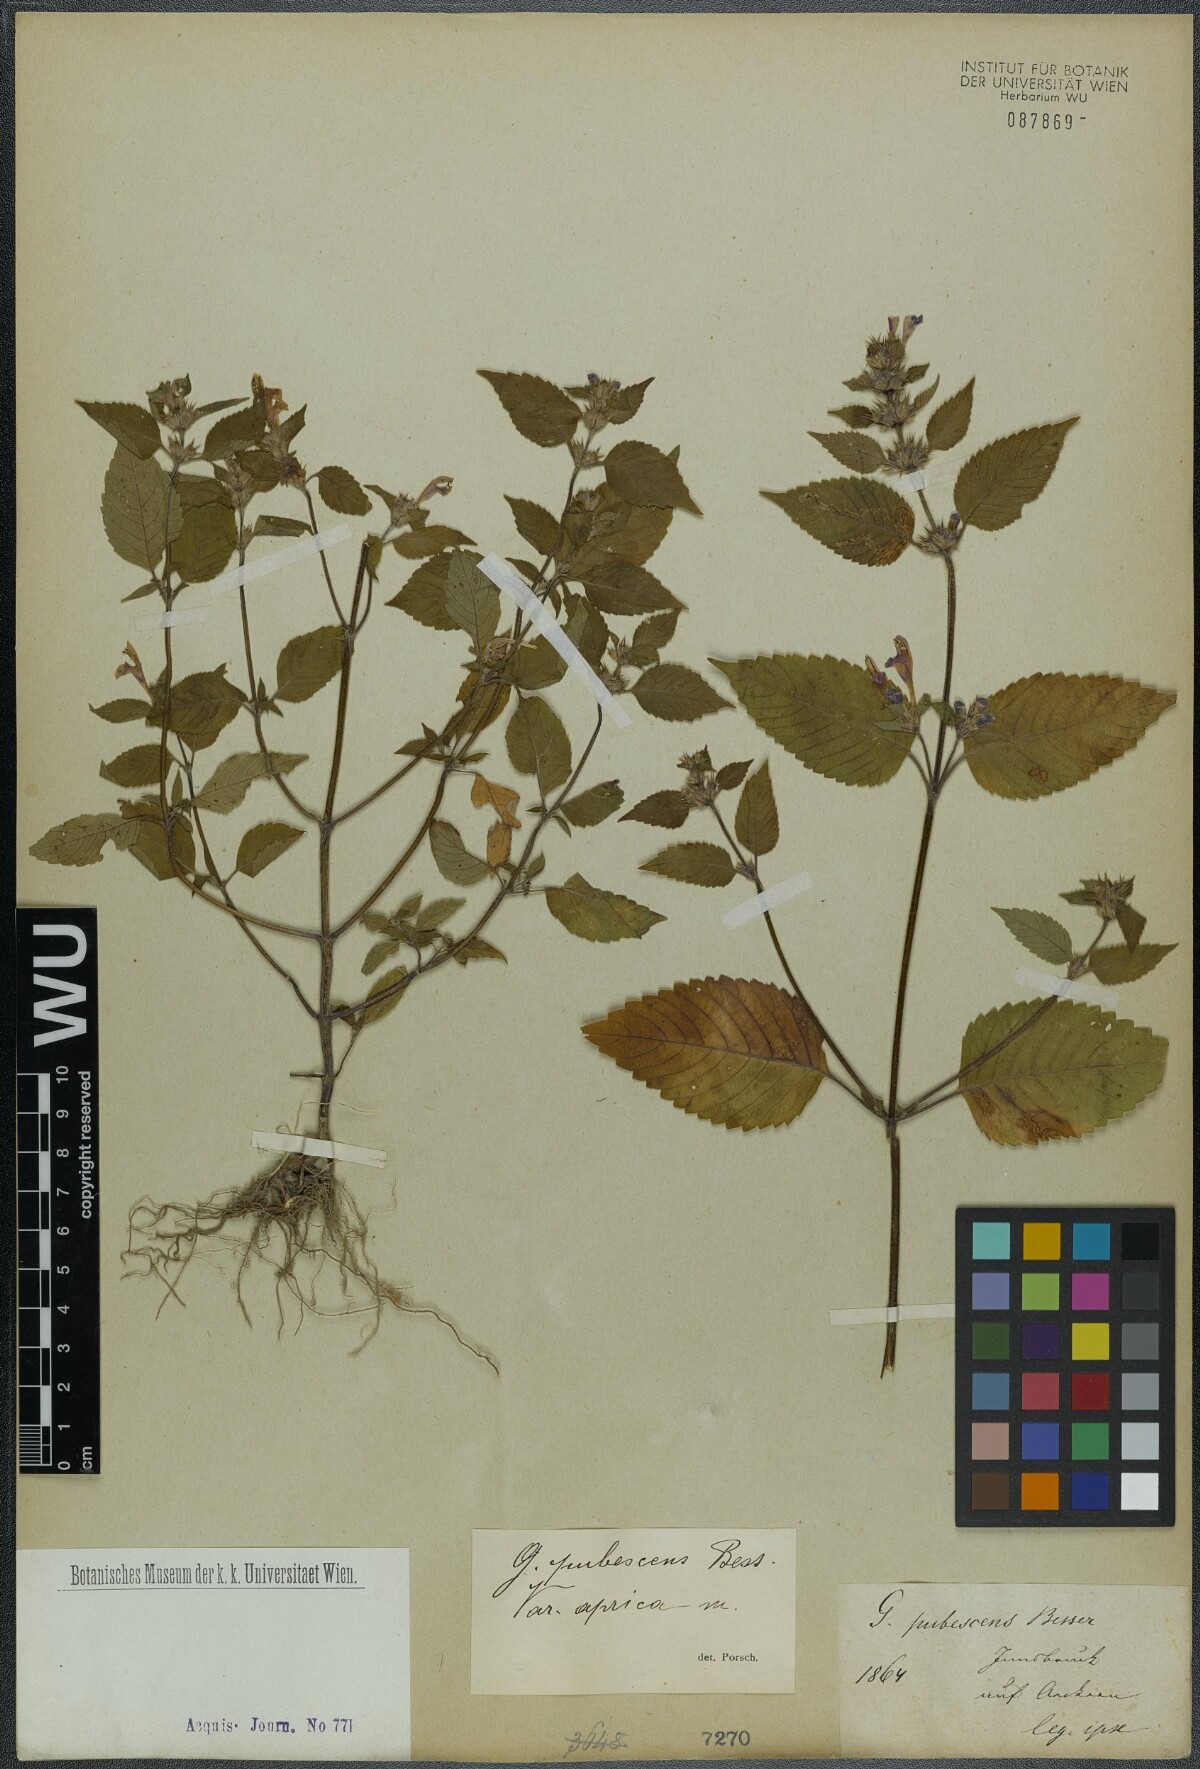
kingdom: Plantae
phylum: Tracheophyta
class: Magnoliopsida
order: Lamiales
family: Lamiaceae
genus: Galeopsis
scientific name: Galeopsis pubescens
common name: Downy hemp-nettle
